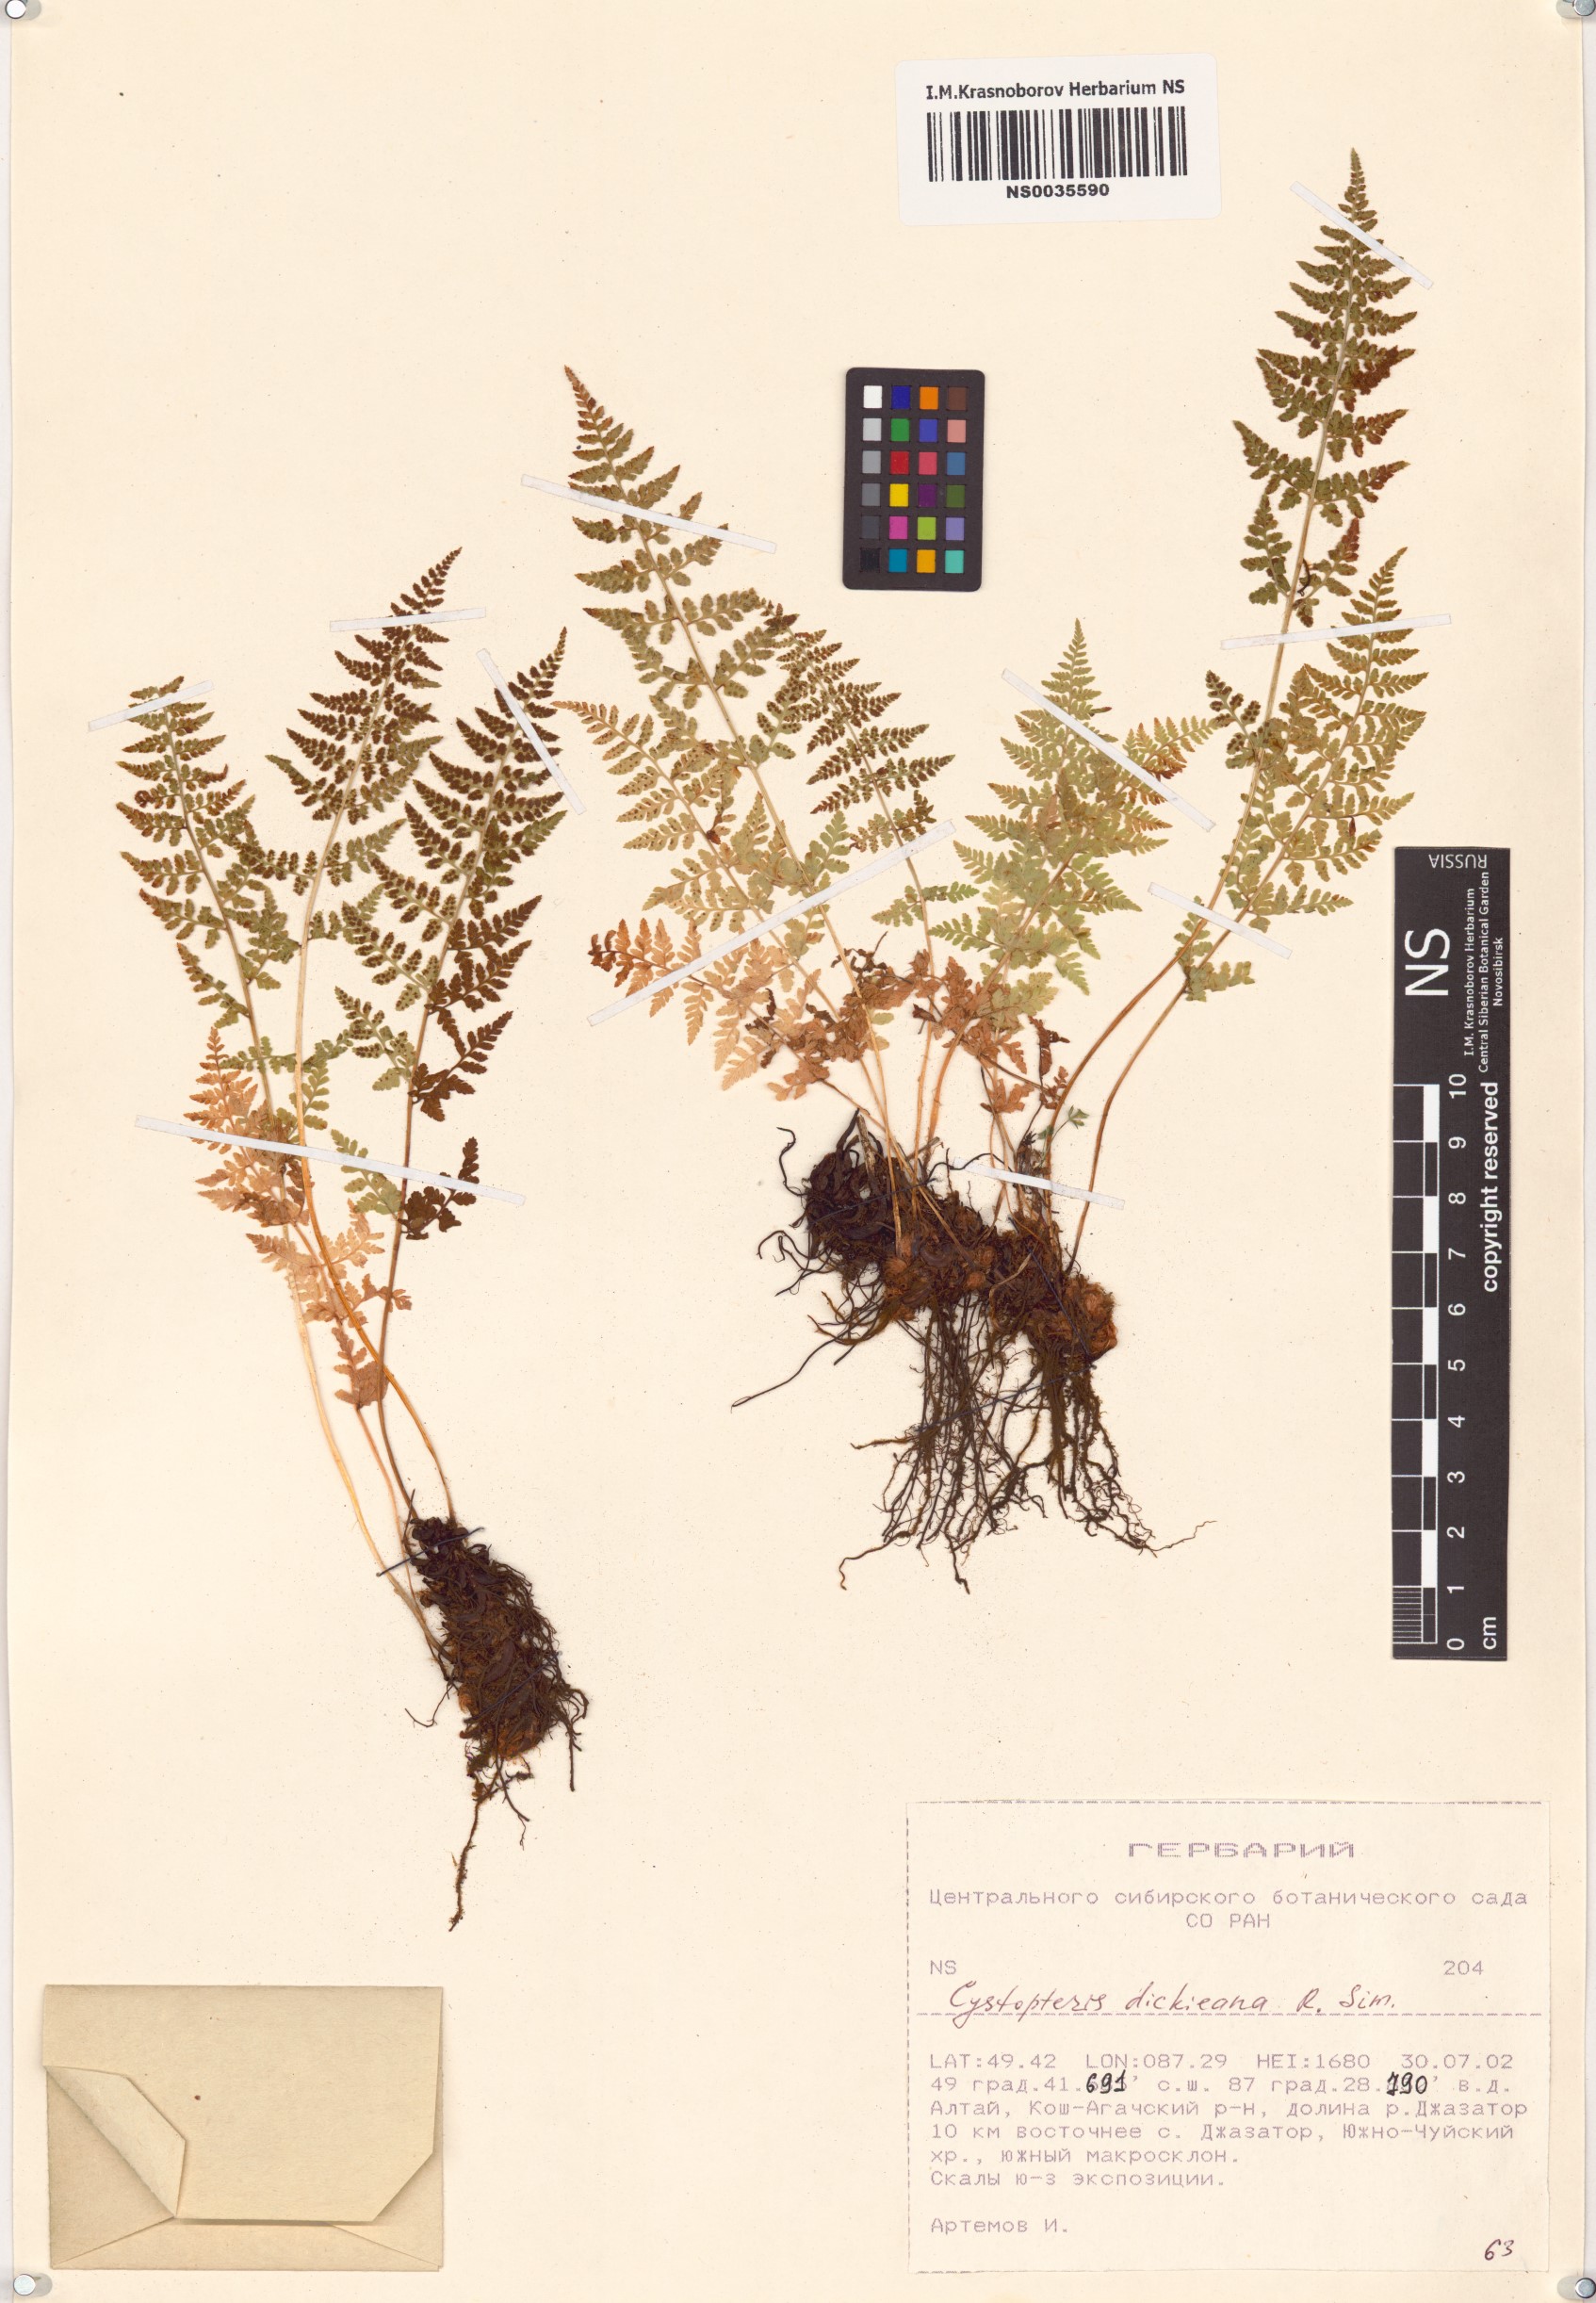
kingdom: Plantae
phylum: Tracheophyta
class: Polypodiopsida
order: Polypodiales
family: Cystopteridaceae
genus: Cystopteris
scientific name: Cystopteris dickieana
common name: Dickie's bladder-fern
